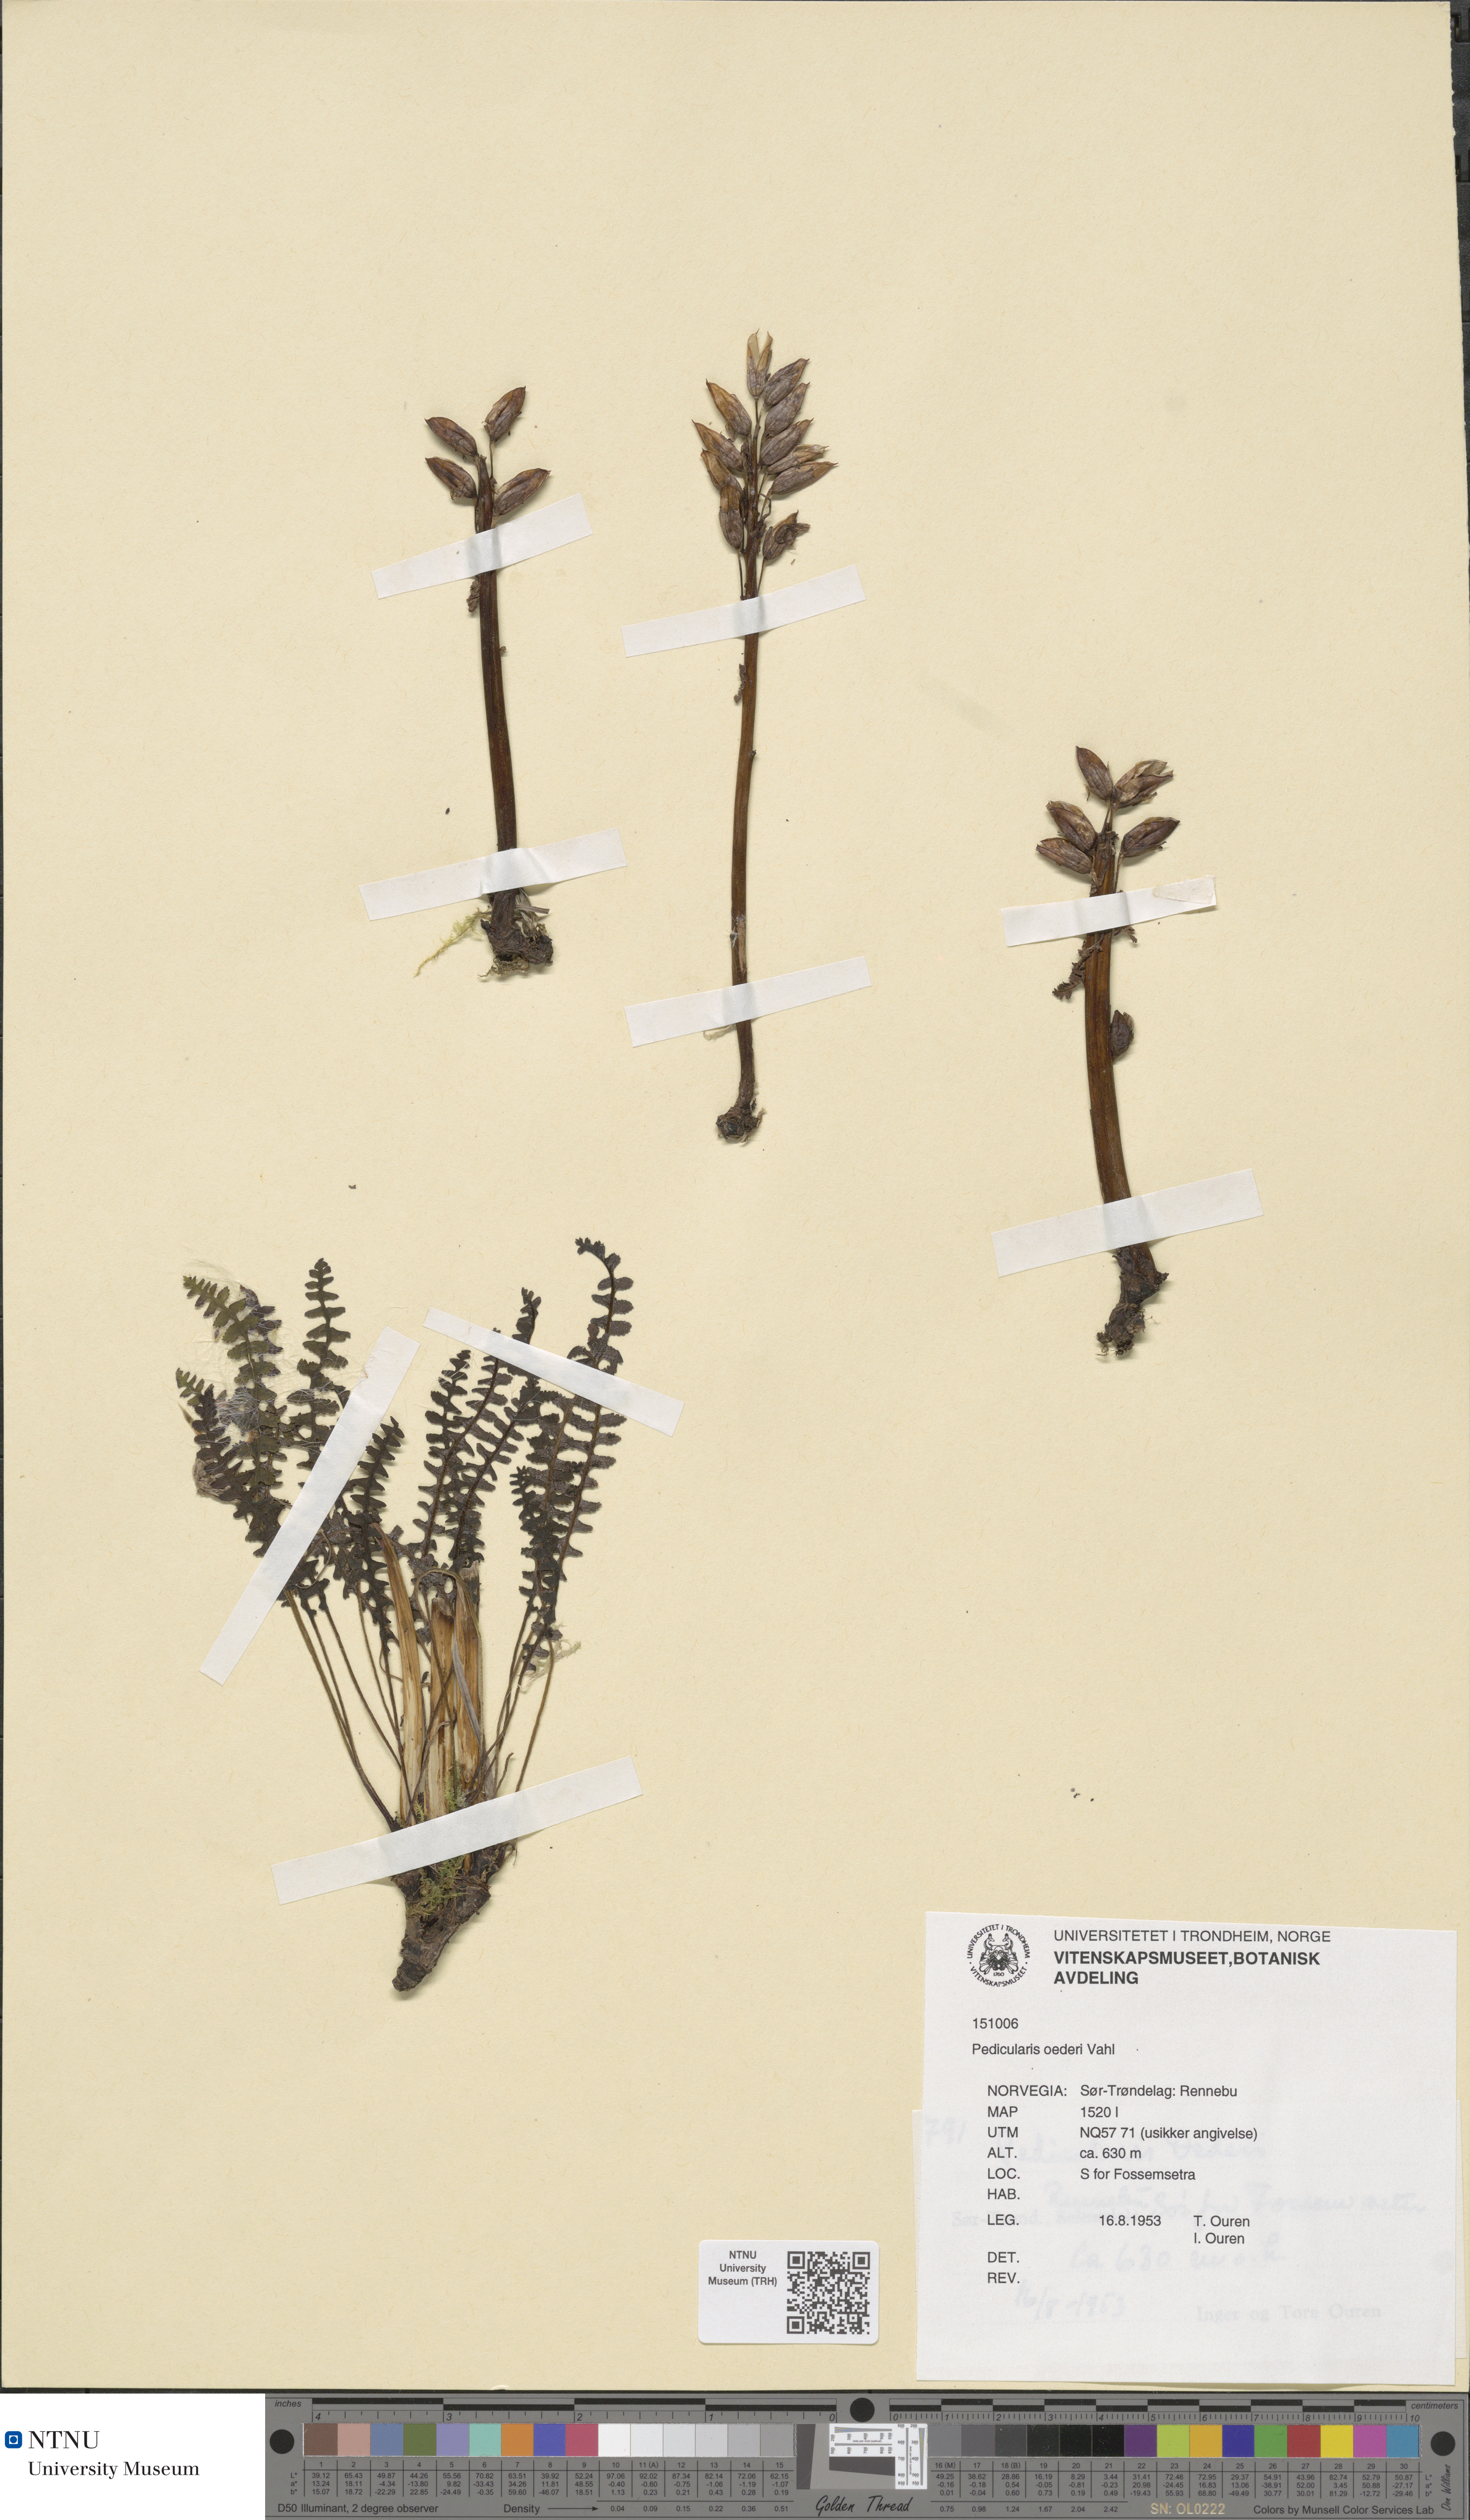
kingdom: Plantae
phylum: Tracheophyta
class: Magnoliopsida
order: Lamiales
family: Orobanchaceae
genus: Pedicularis
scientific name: Pedicularis oederi
